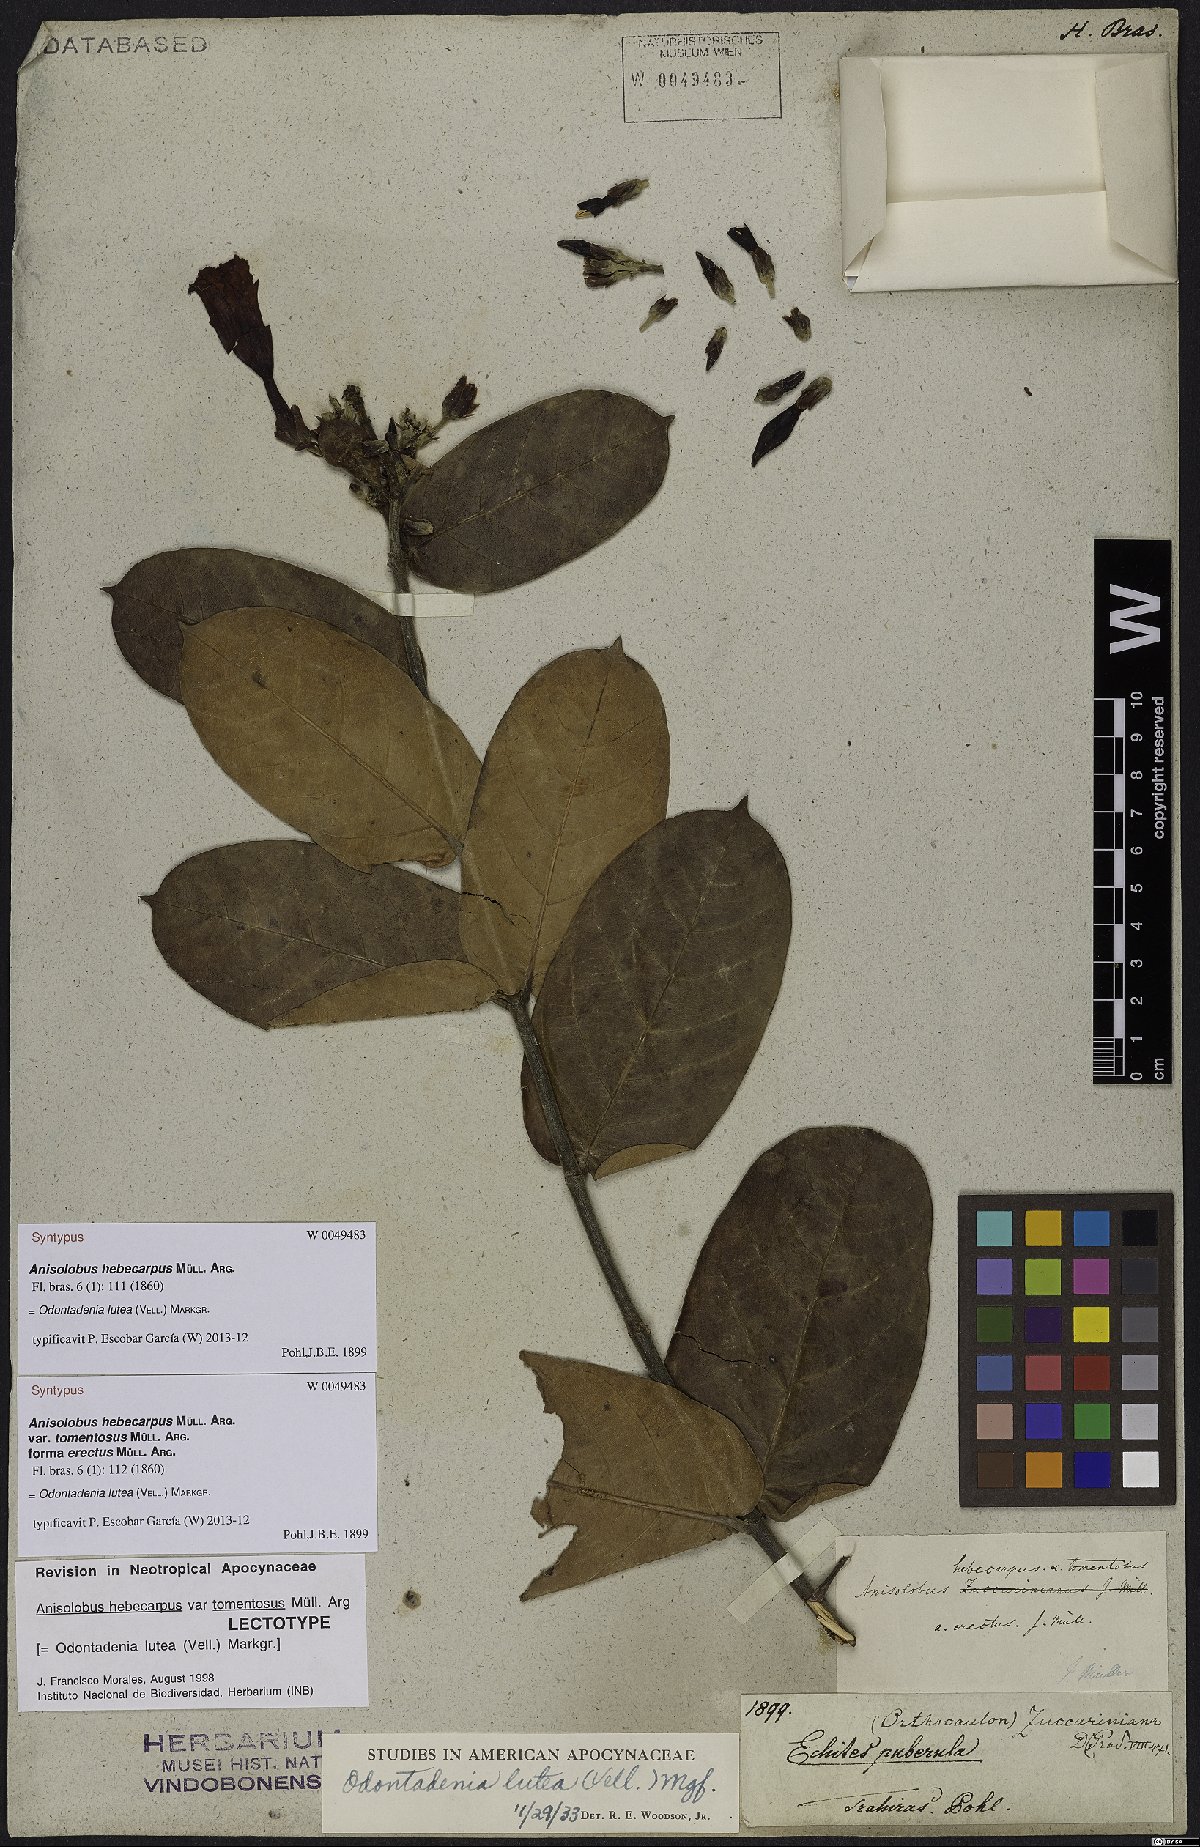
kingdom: Plantae
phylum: Tracheophyta
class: Magnoliopsida
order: Gentianales
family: Apocynaceae
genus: Odontadenia
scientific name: Odontadenia lutea
